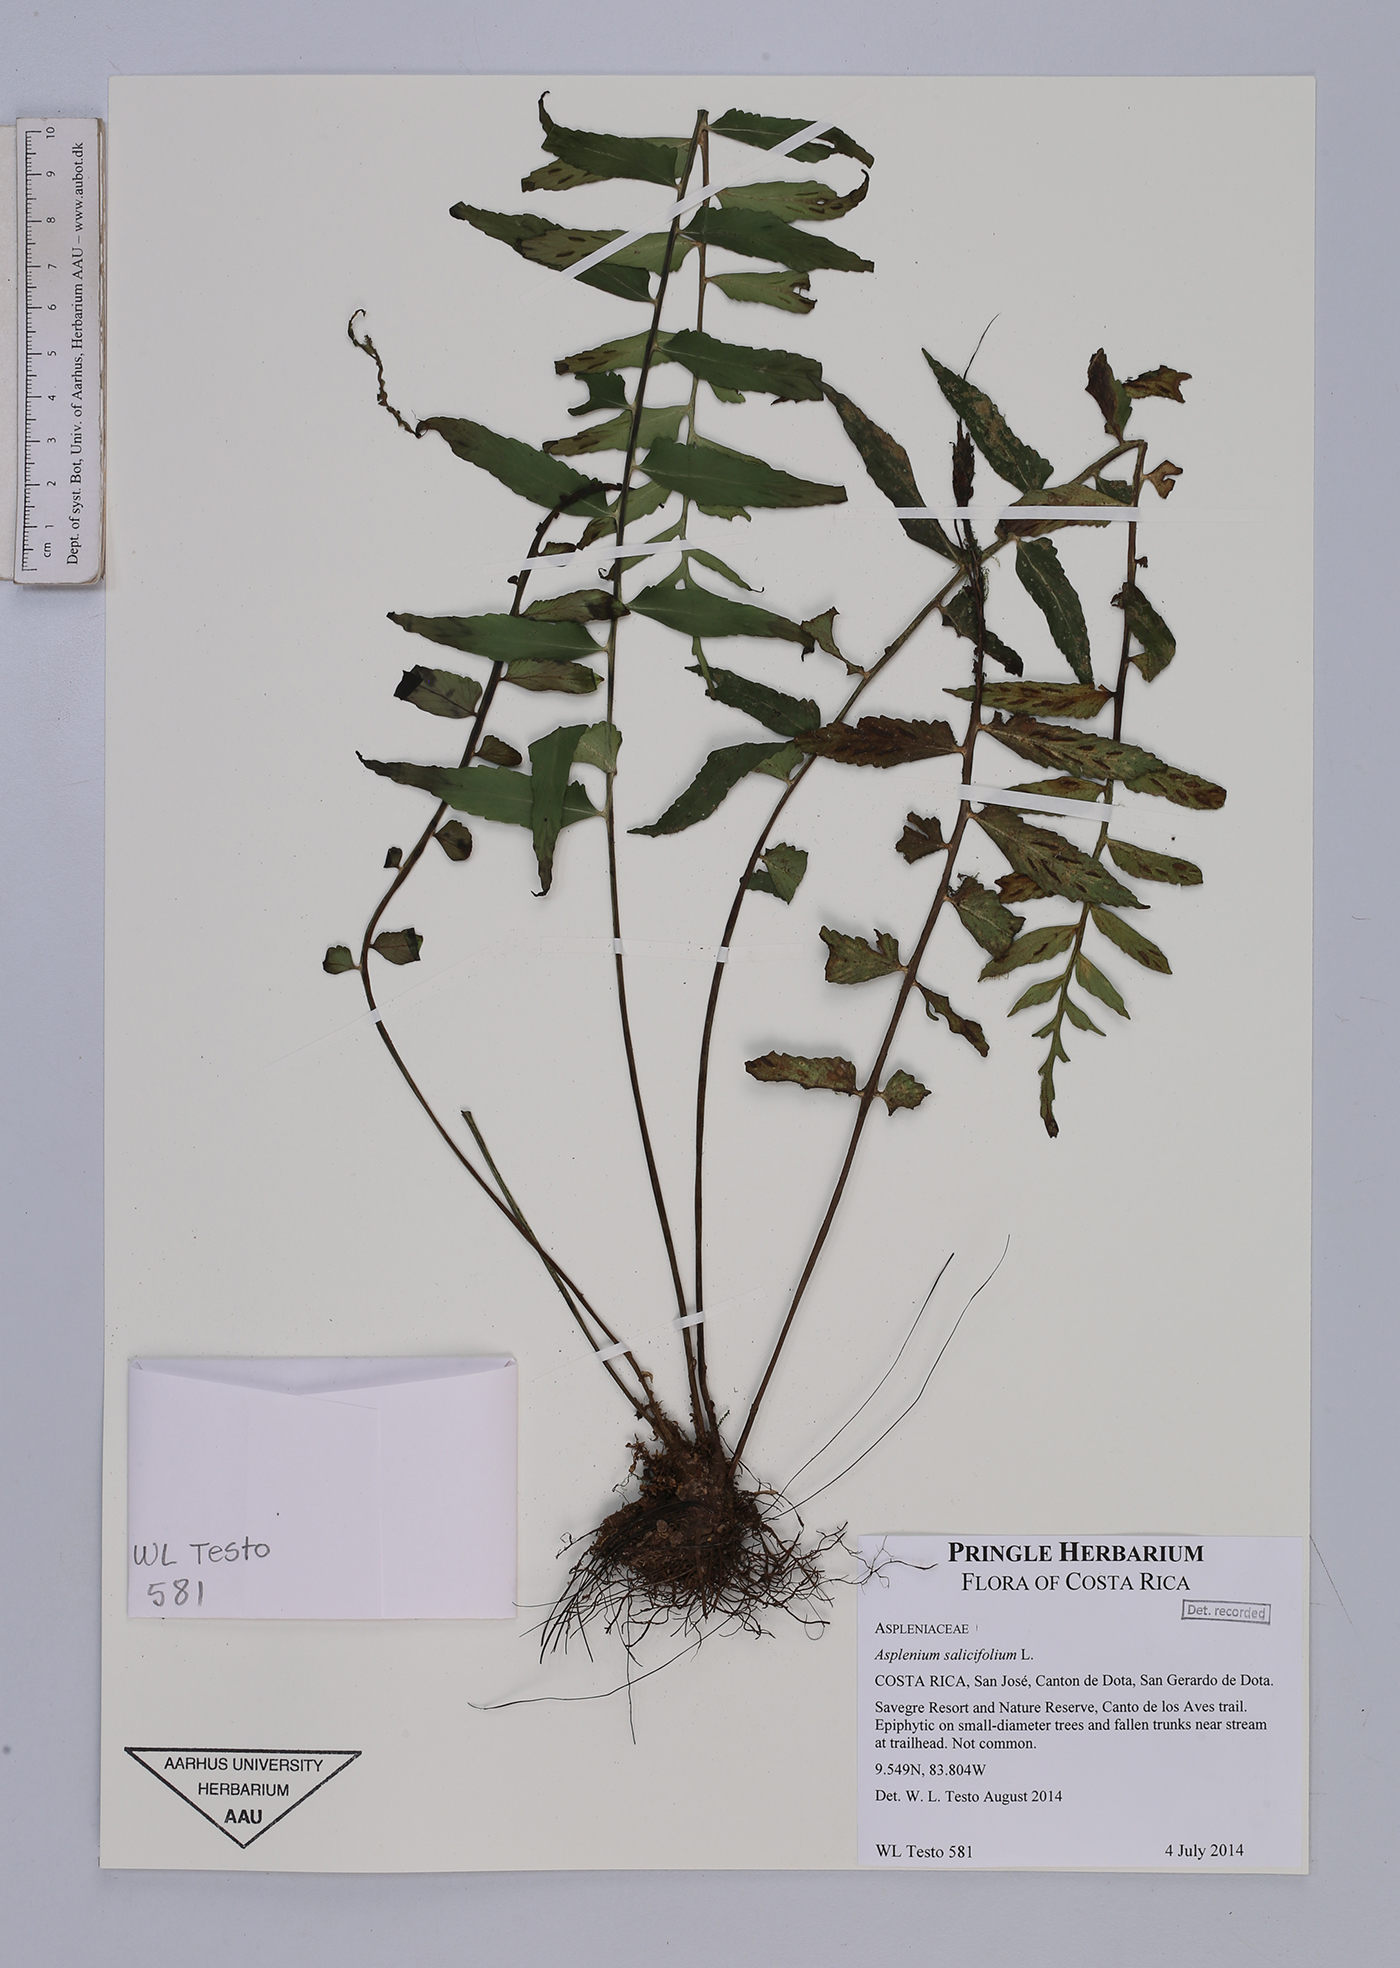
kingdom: Plantae
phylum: Tracheophyta
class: Polypodiopsida
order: Polypodiales
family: Aspleniaceae
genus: Asplenium
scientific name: Asplenium salicifolium
